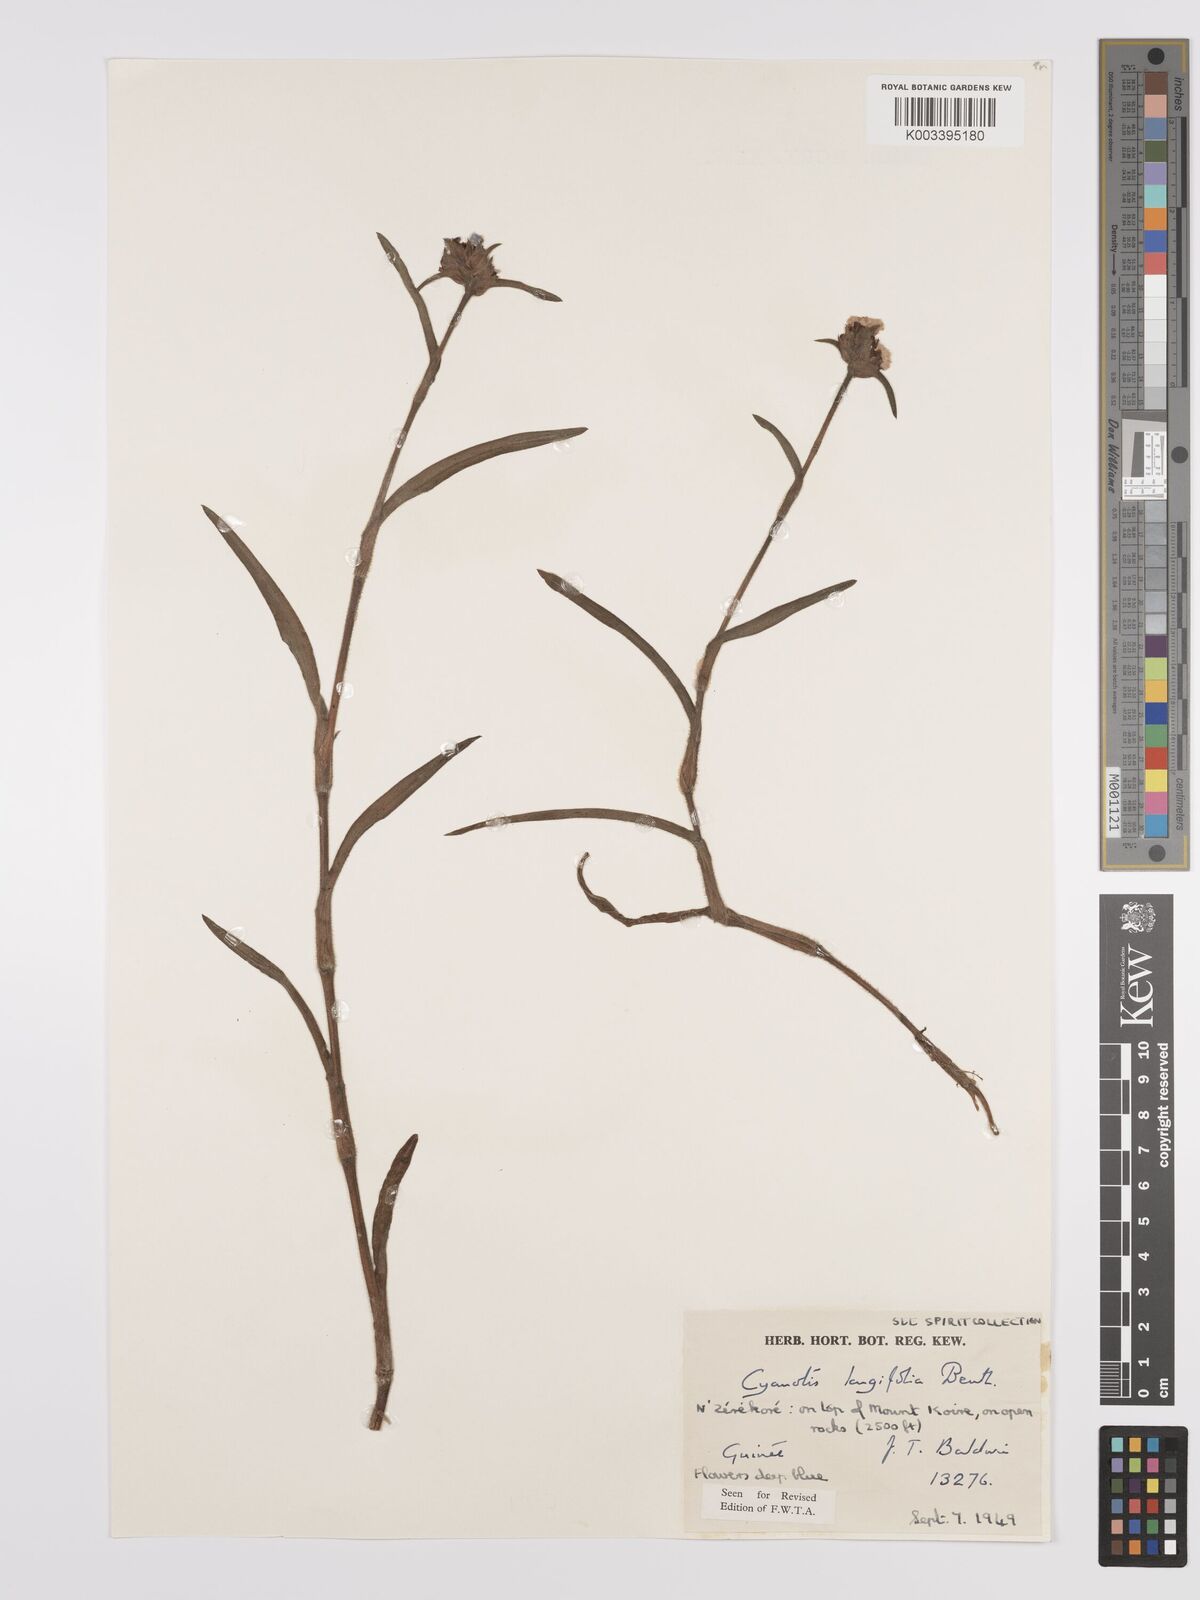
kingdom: Plantae
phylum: Tracheophyta
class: Liliopsida
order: Commelinales
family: Commelinaceae
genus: Cyanotis
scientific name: Cyanotis
